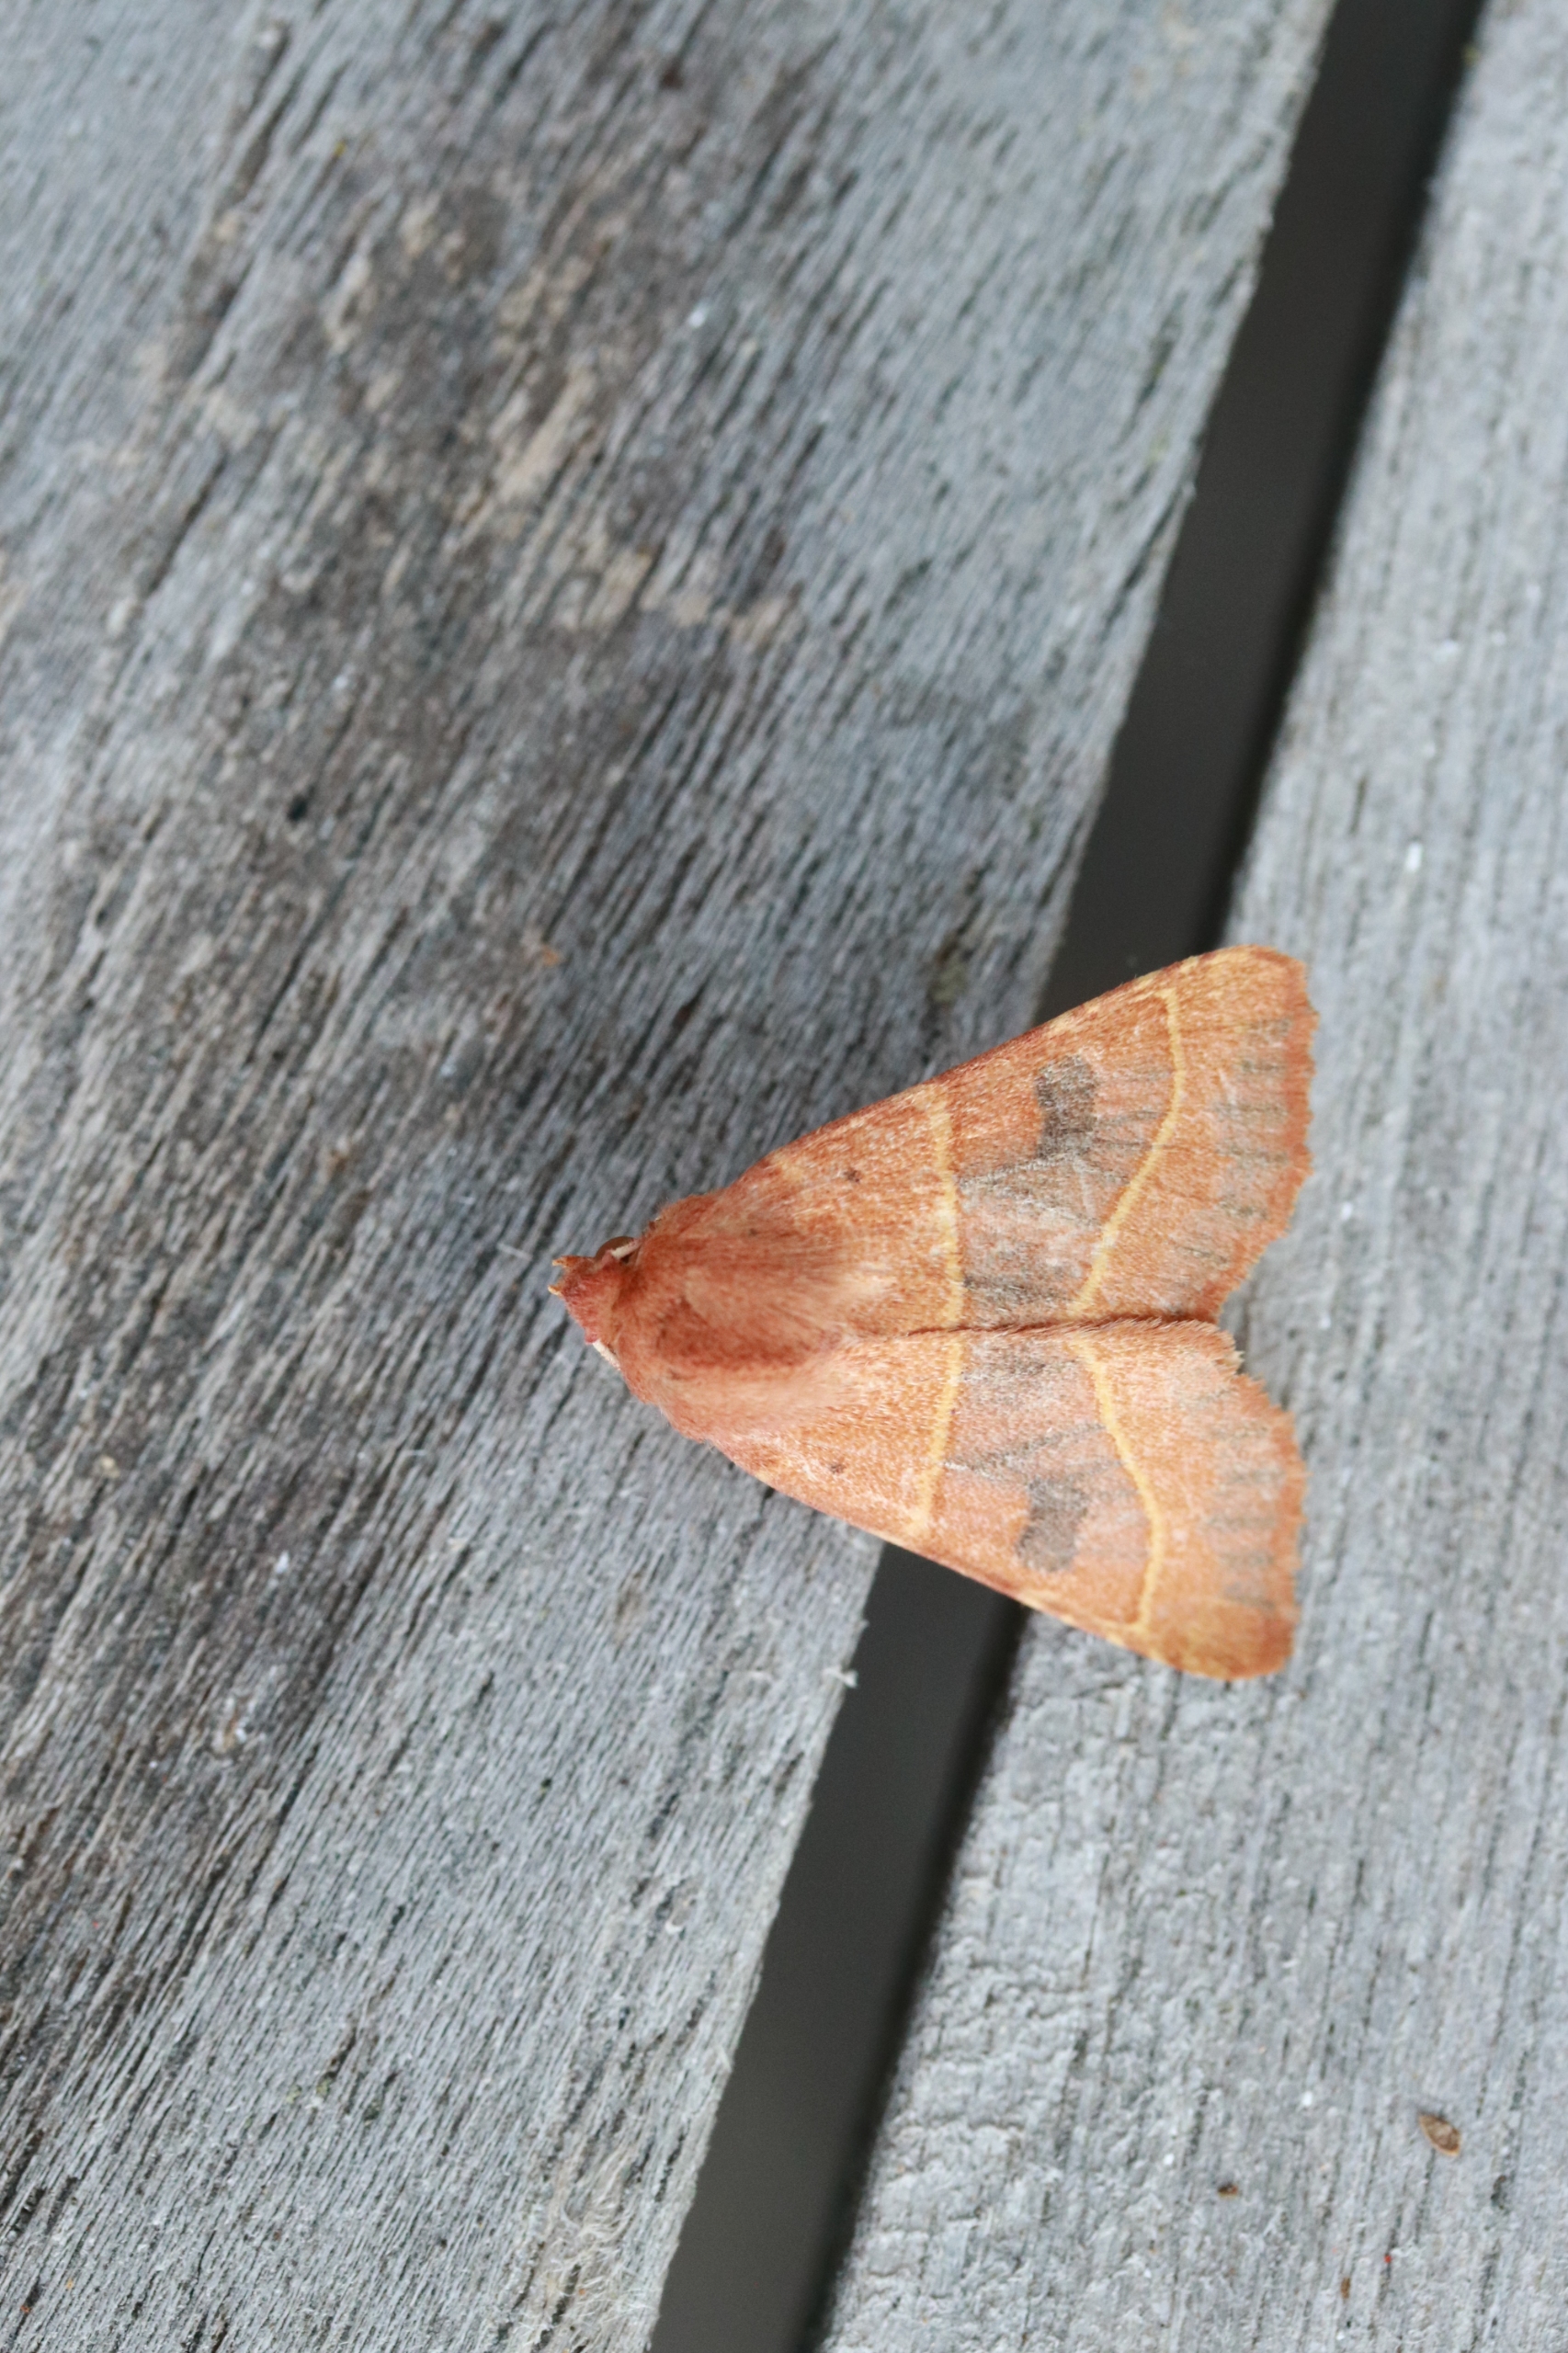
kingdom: Animalia
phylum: Arthropoda
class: Insecta
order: Lepidoptera
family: Noctuidae
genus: Atethmia
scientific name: Atethmia centrago
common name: Aske-septemberugle
